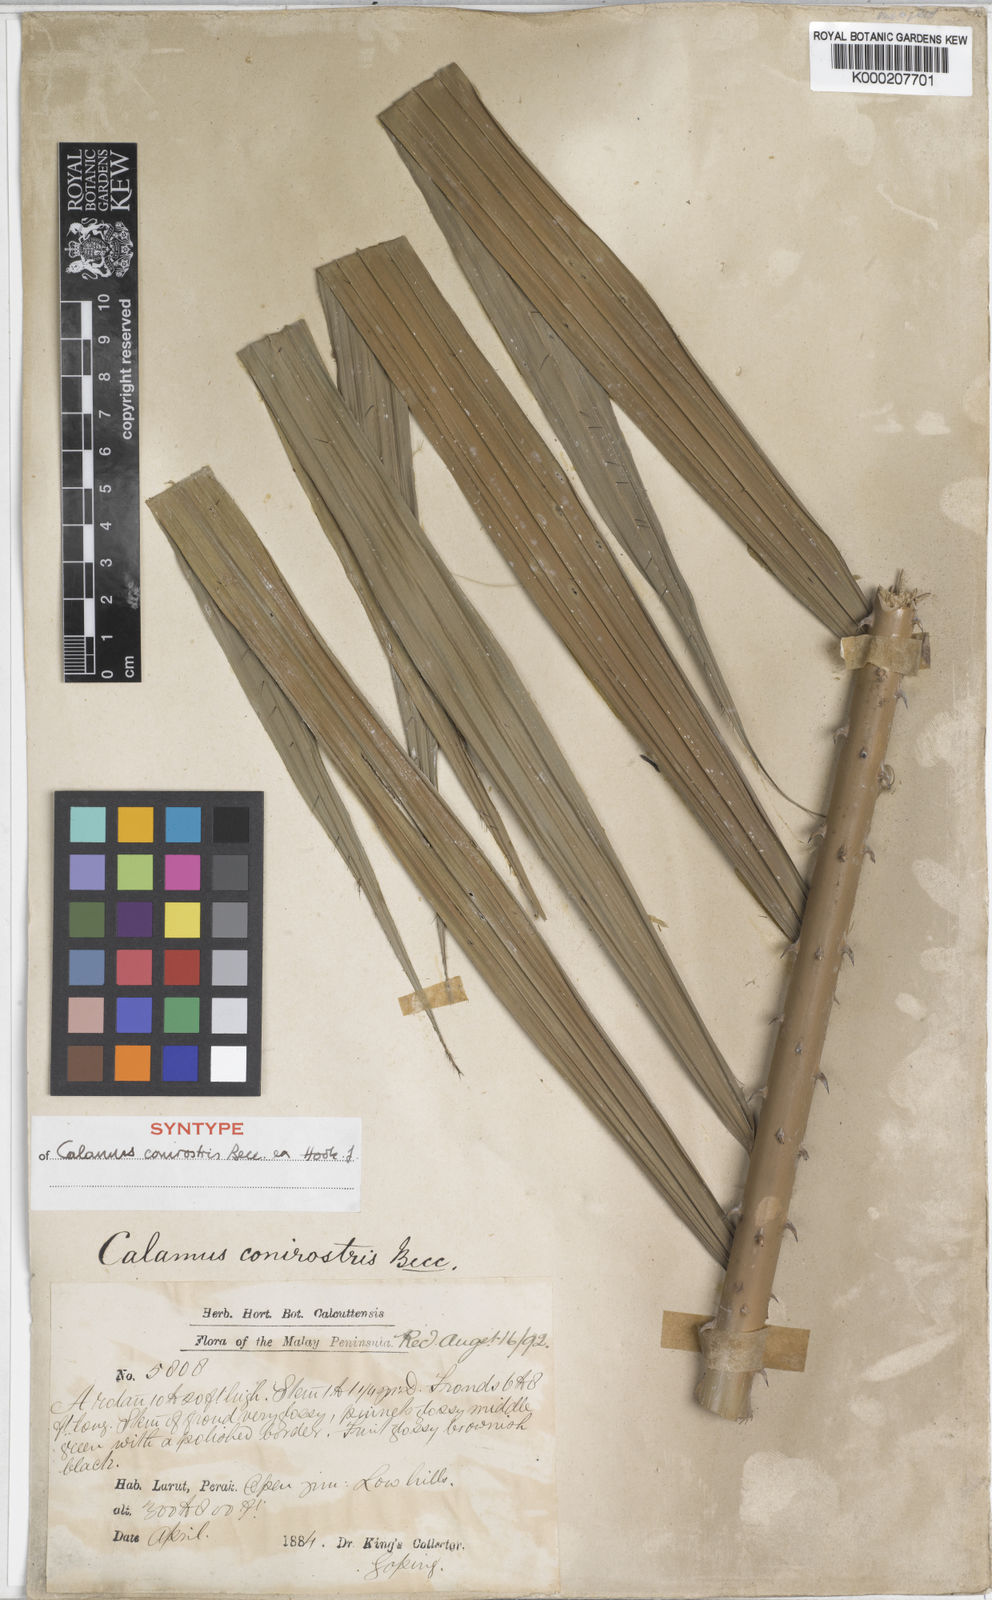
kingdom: Plantae
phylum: Tracheophyta
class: Liliopsida
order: Arecales
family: Arecaceae
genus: Calamus
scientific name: Calamus conirostris
